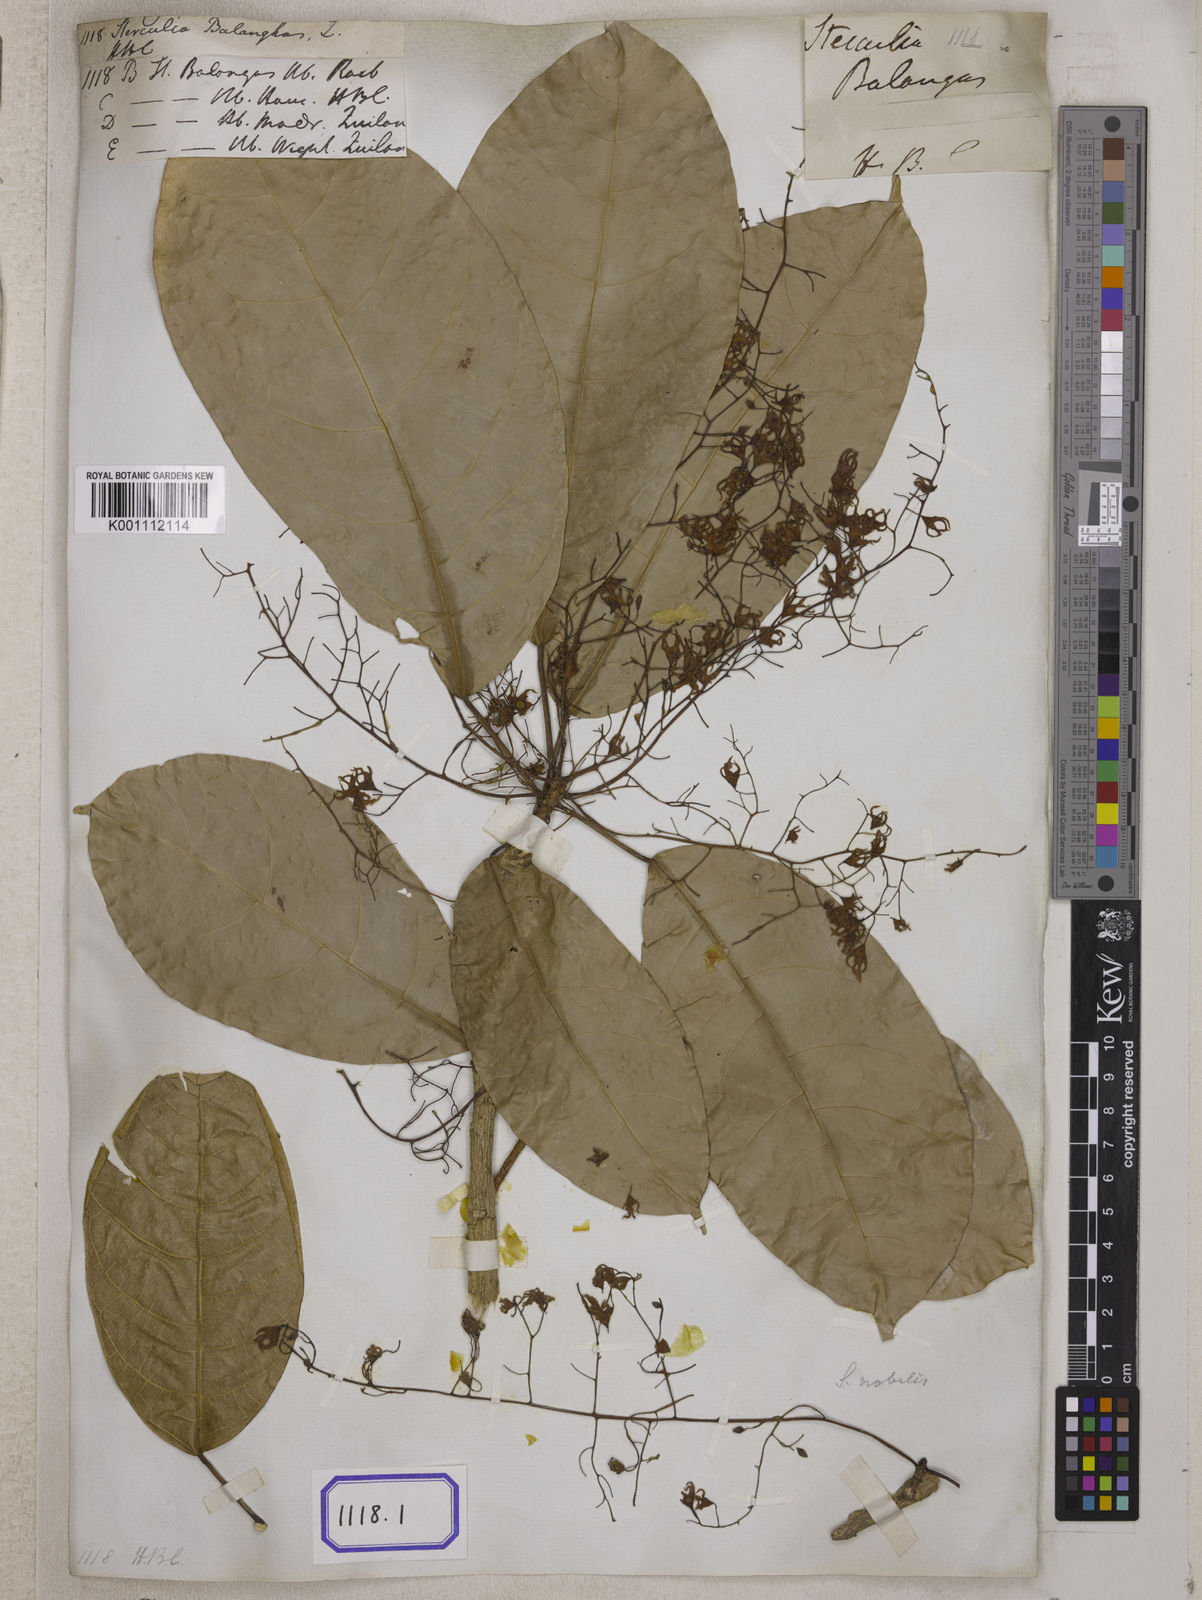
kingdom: Plantae
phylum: Tracheophyta
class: Magnoliopsida
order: Malvales
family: Malvaceae
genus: Sterculia
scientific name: Sterculia balanghas
